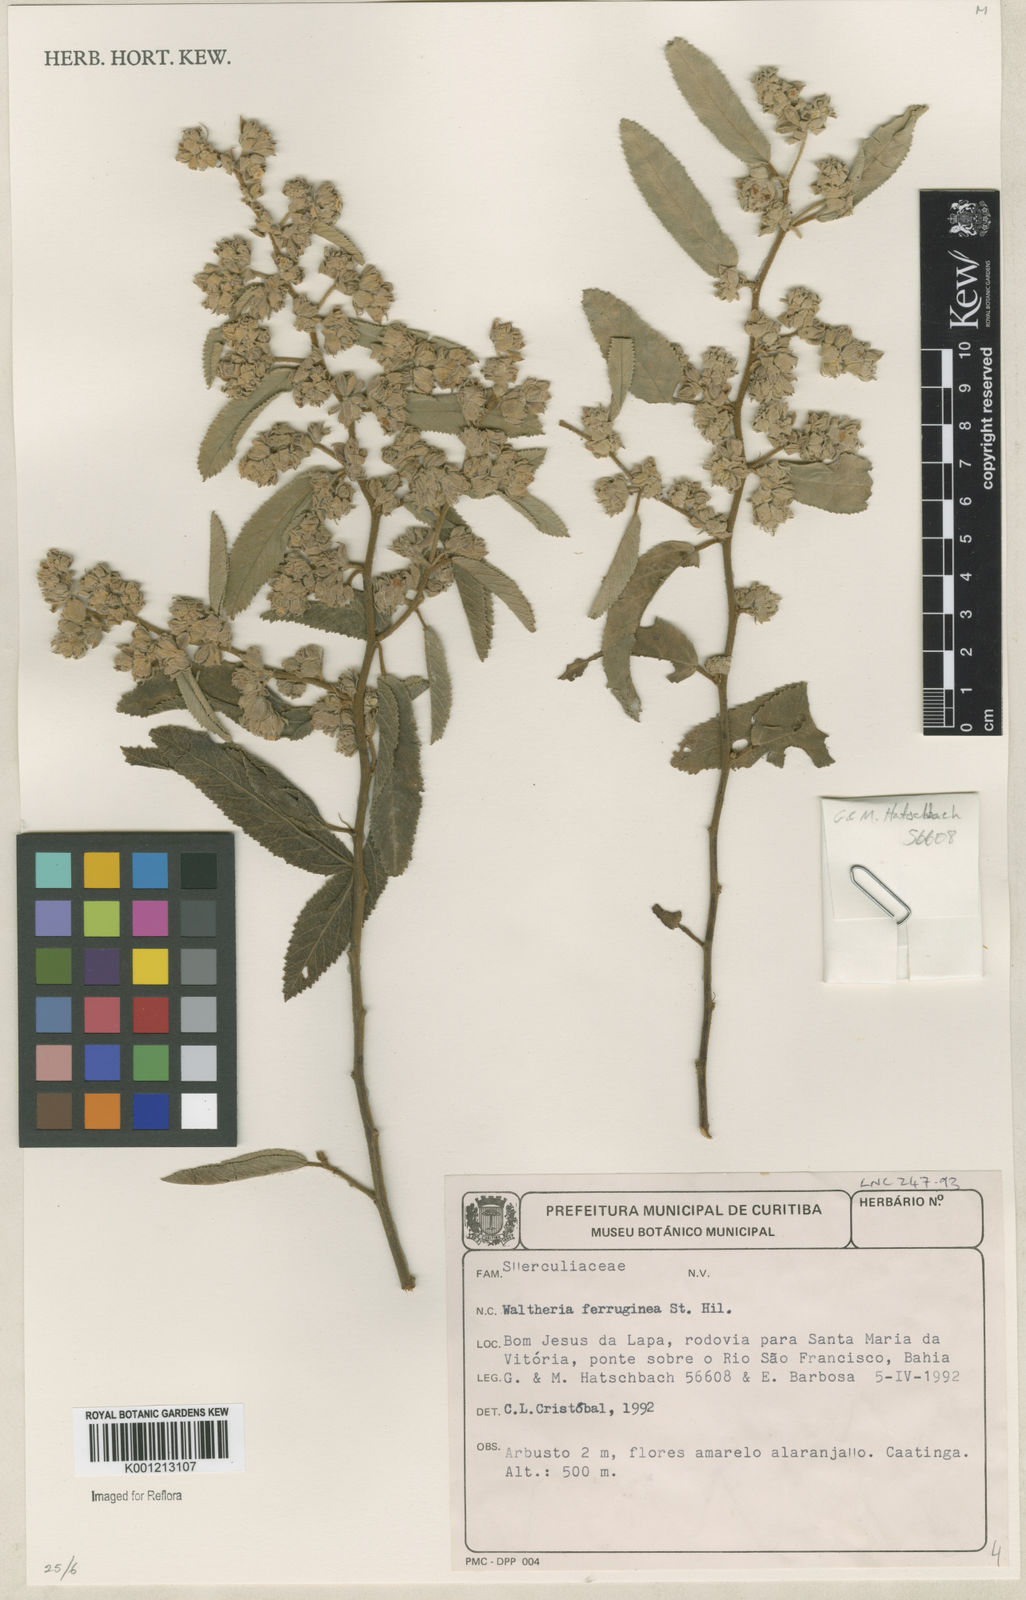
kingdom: Plantae
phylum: Tracheophyta
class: Magnoliopsida
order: Malvales
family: Malvaceae
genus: Waltheria
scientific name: Waltheria ferruginea
